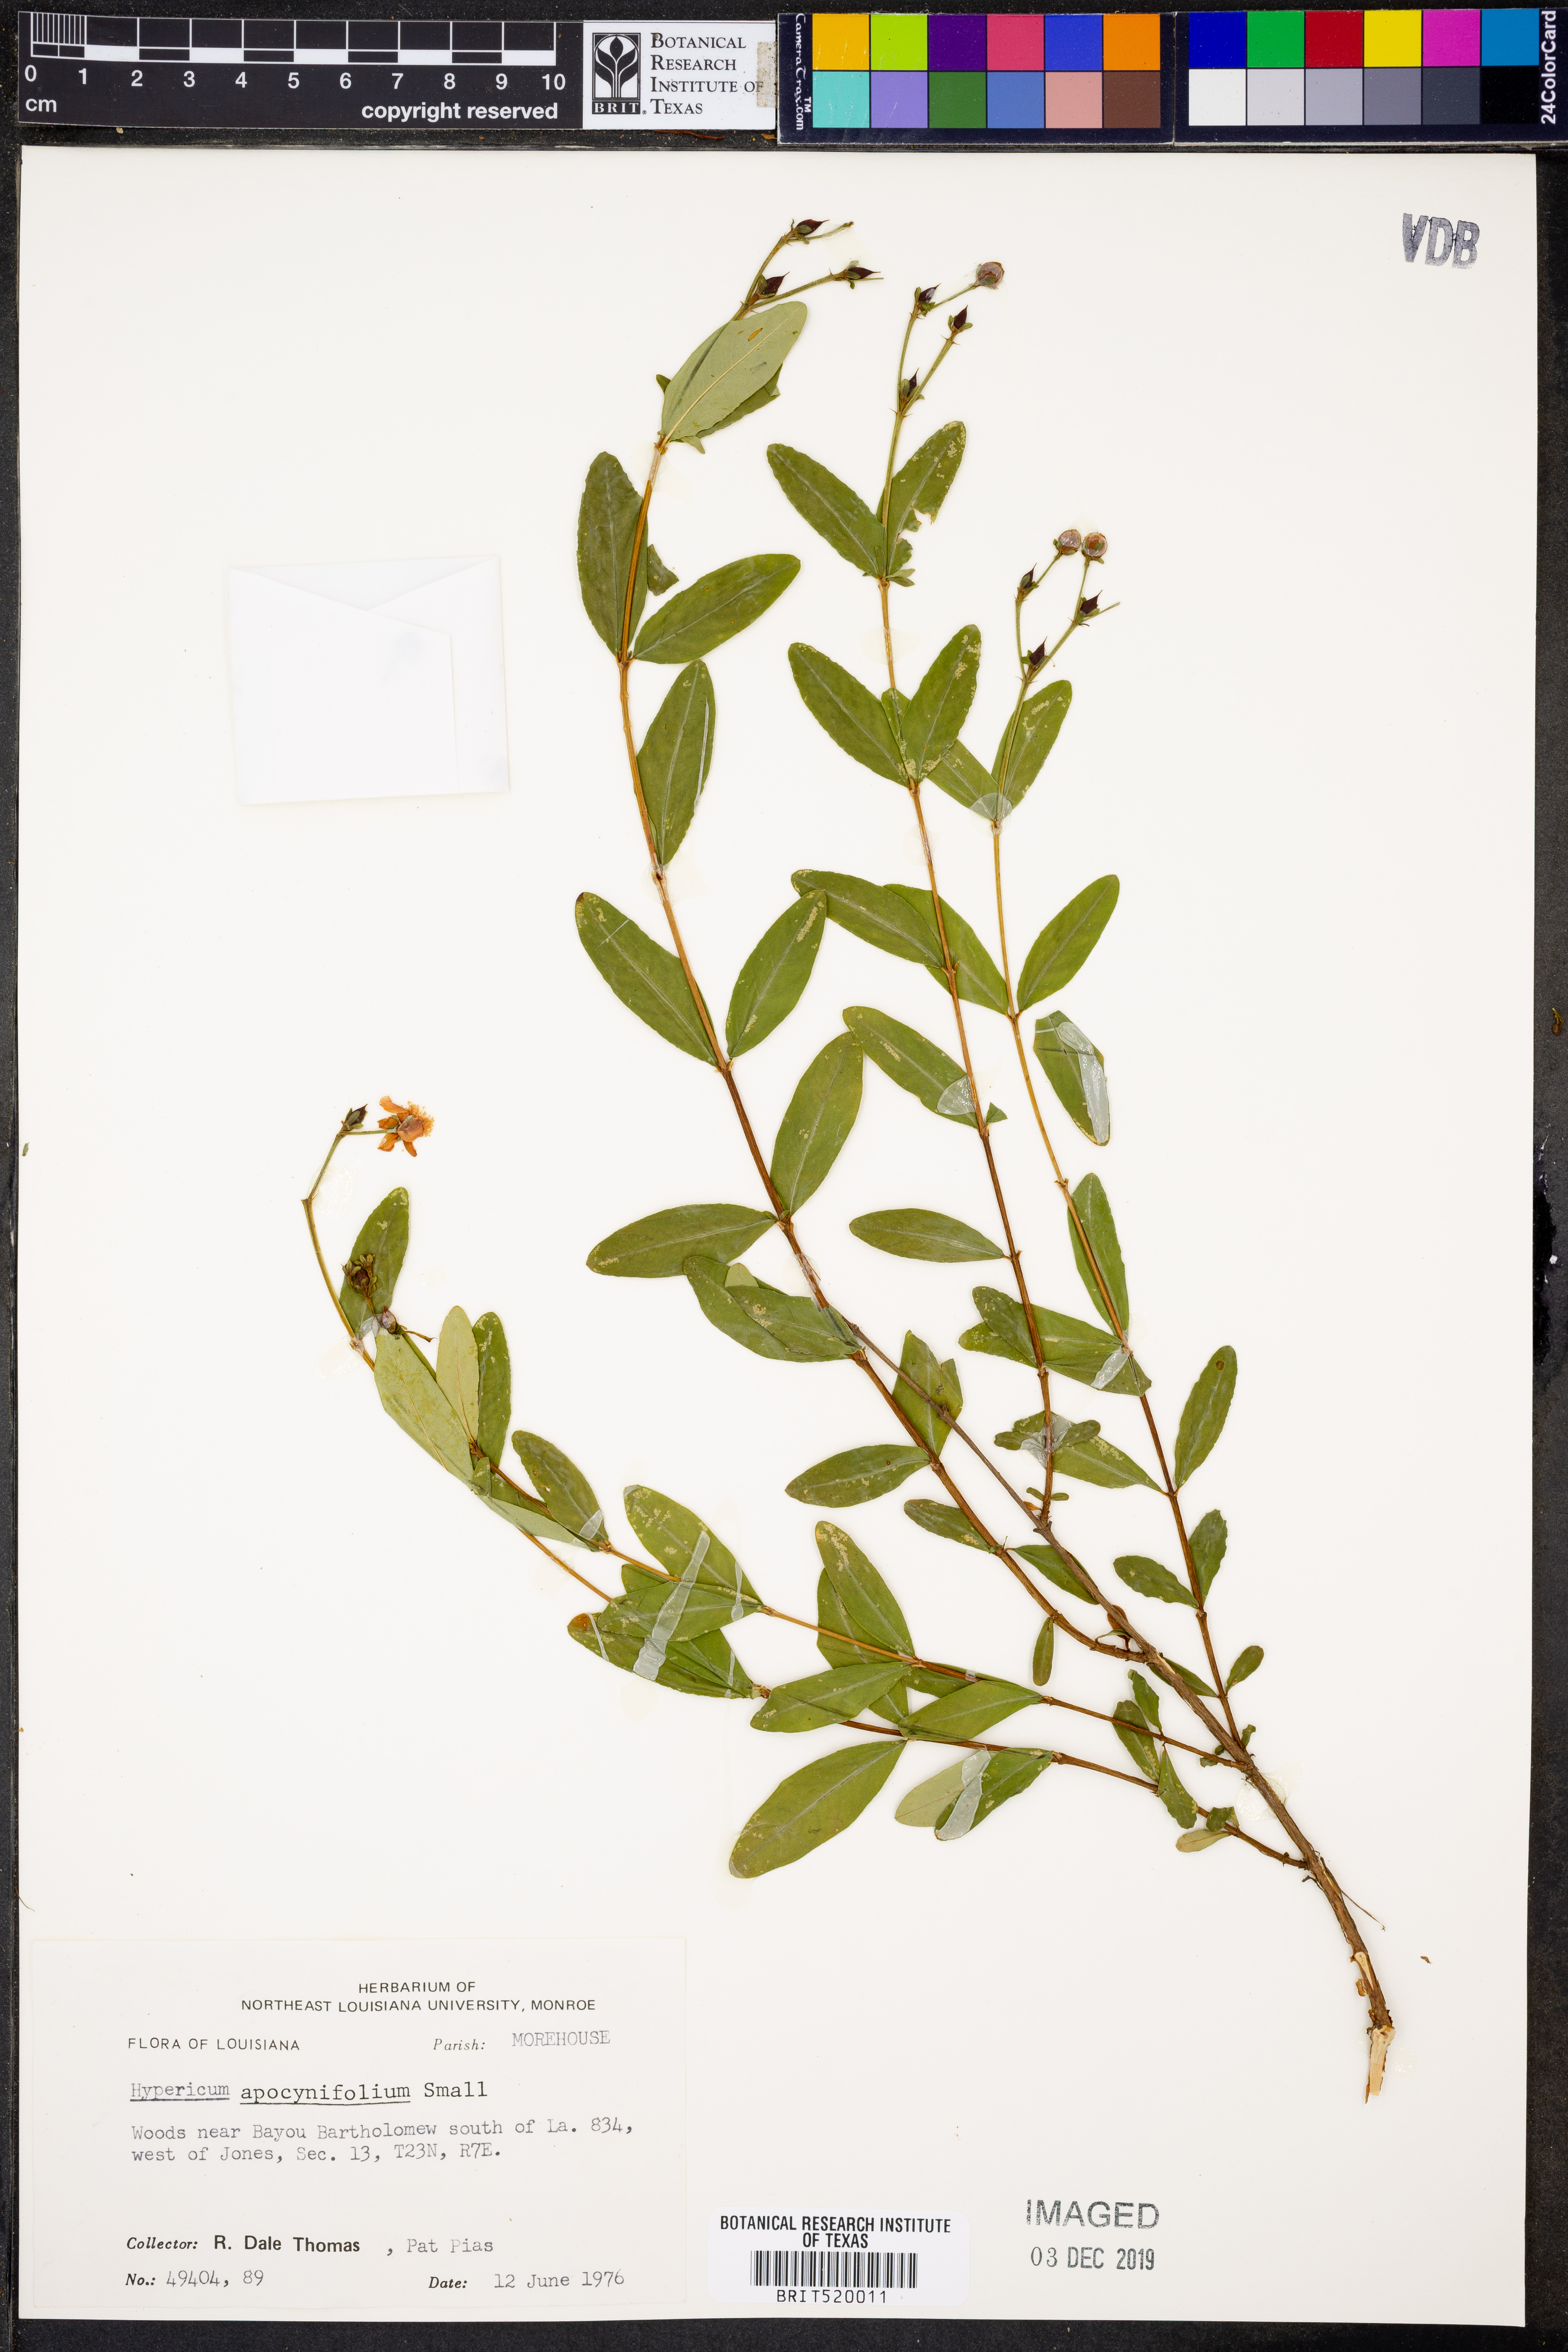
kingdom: Plantae
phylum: Tracheophyta
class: Magnoliopsida
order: Malpighiales
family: Hypericaceae
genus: Hypericum
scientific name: Hypericum apocynifolium
